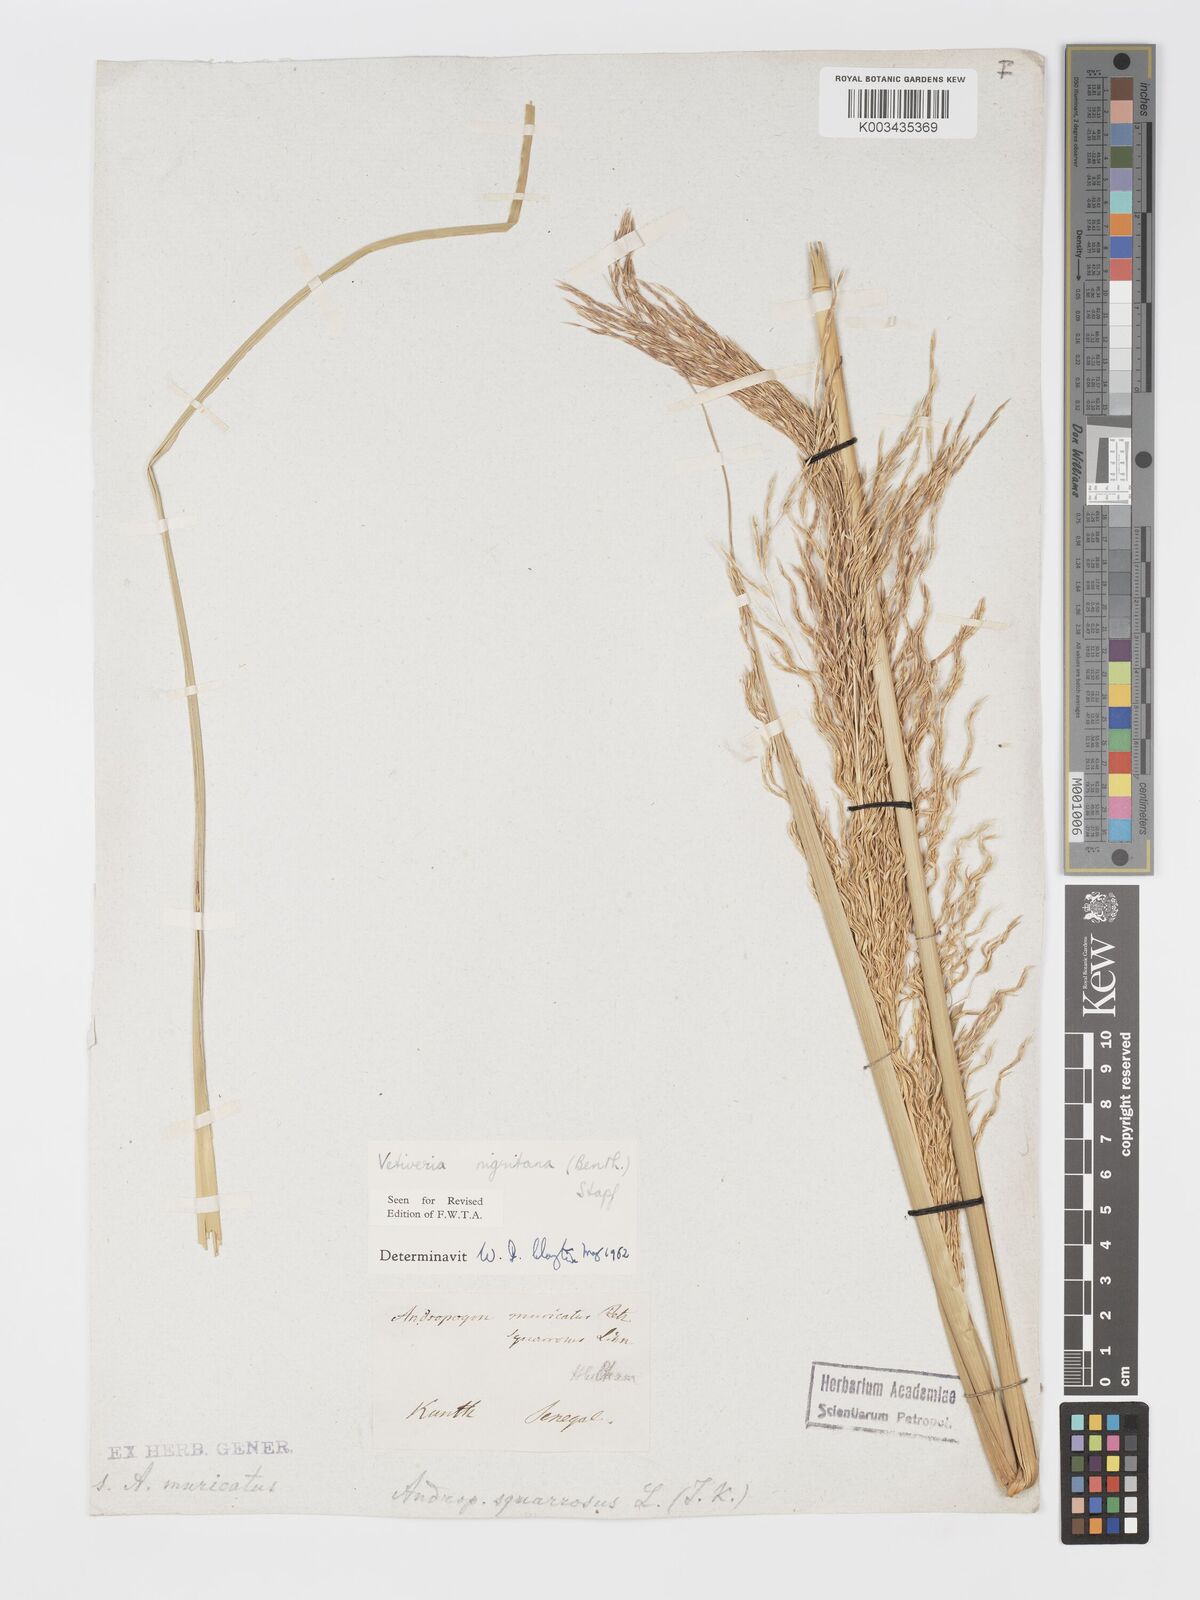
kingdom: Plantae
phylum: Tracheophyta
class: Liliopsida
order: Poales
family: Poaceae
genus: Chrysopogon
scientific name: Chrysopogon nigritanus
